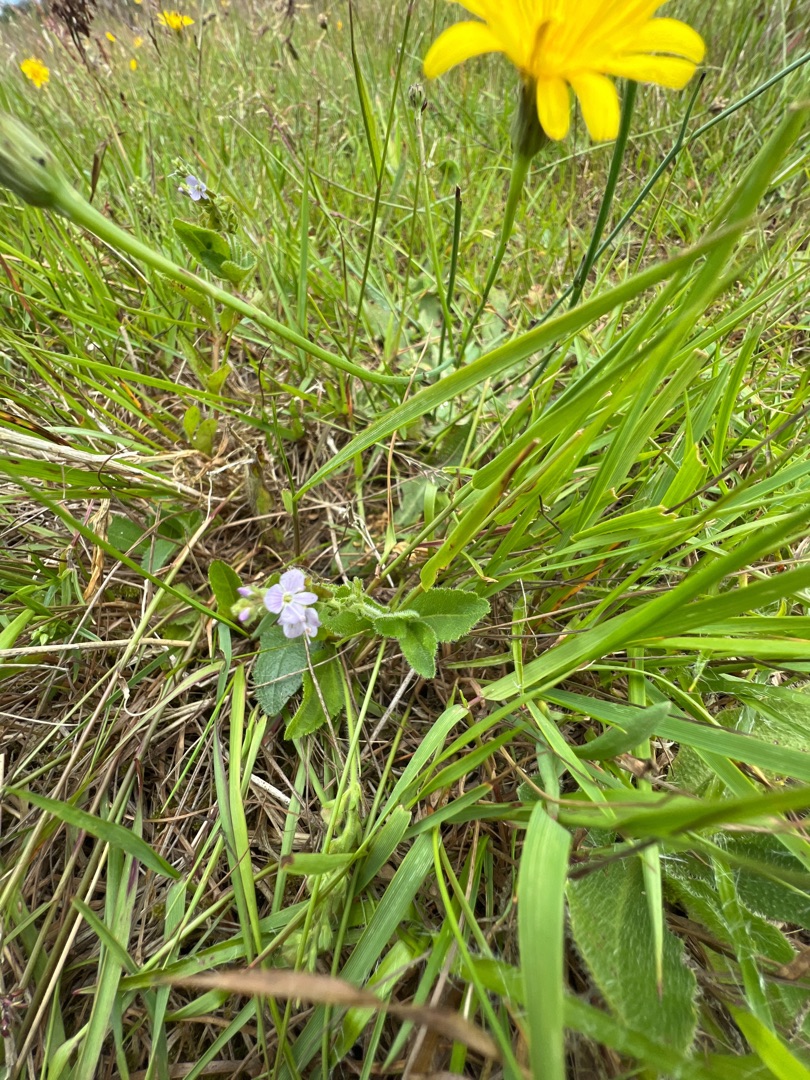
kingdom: Plantae
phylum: Tracheophyta
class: Magnoliopsida
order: Lamiales
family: Plantaginaceae
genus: Veronica
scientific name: Veronica officinalis
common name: Læge-ærenpris
